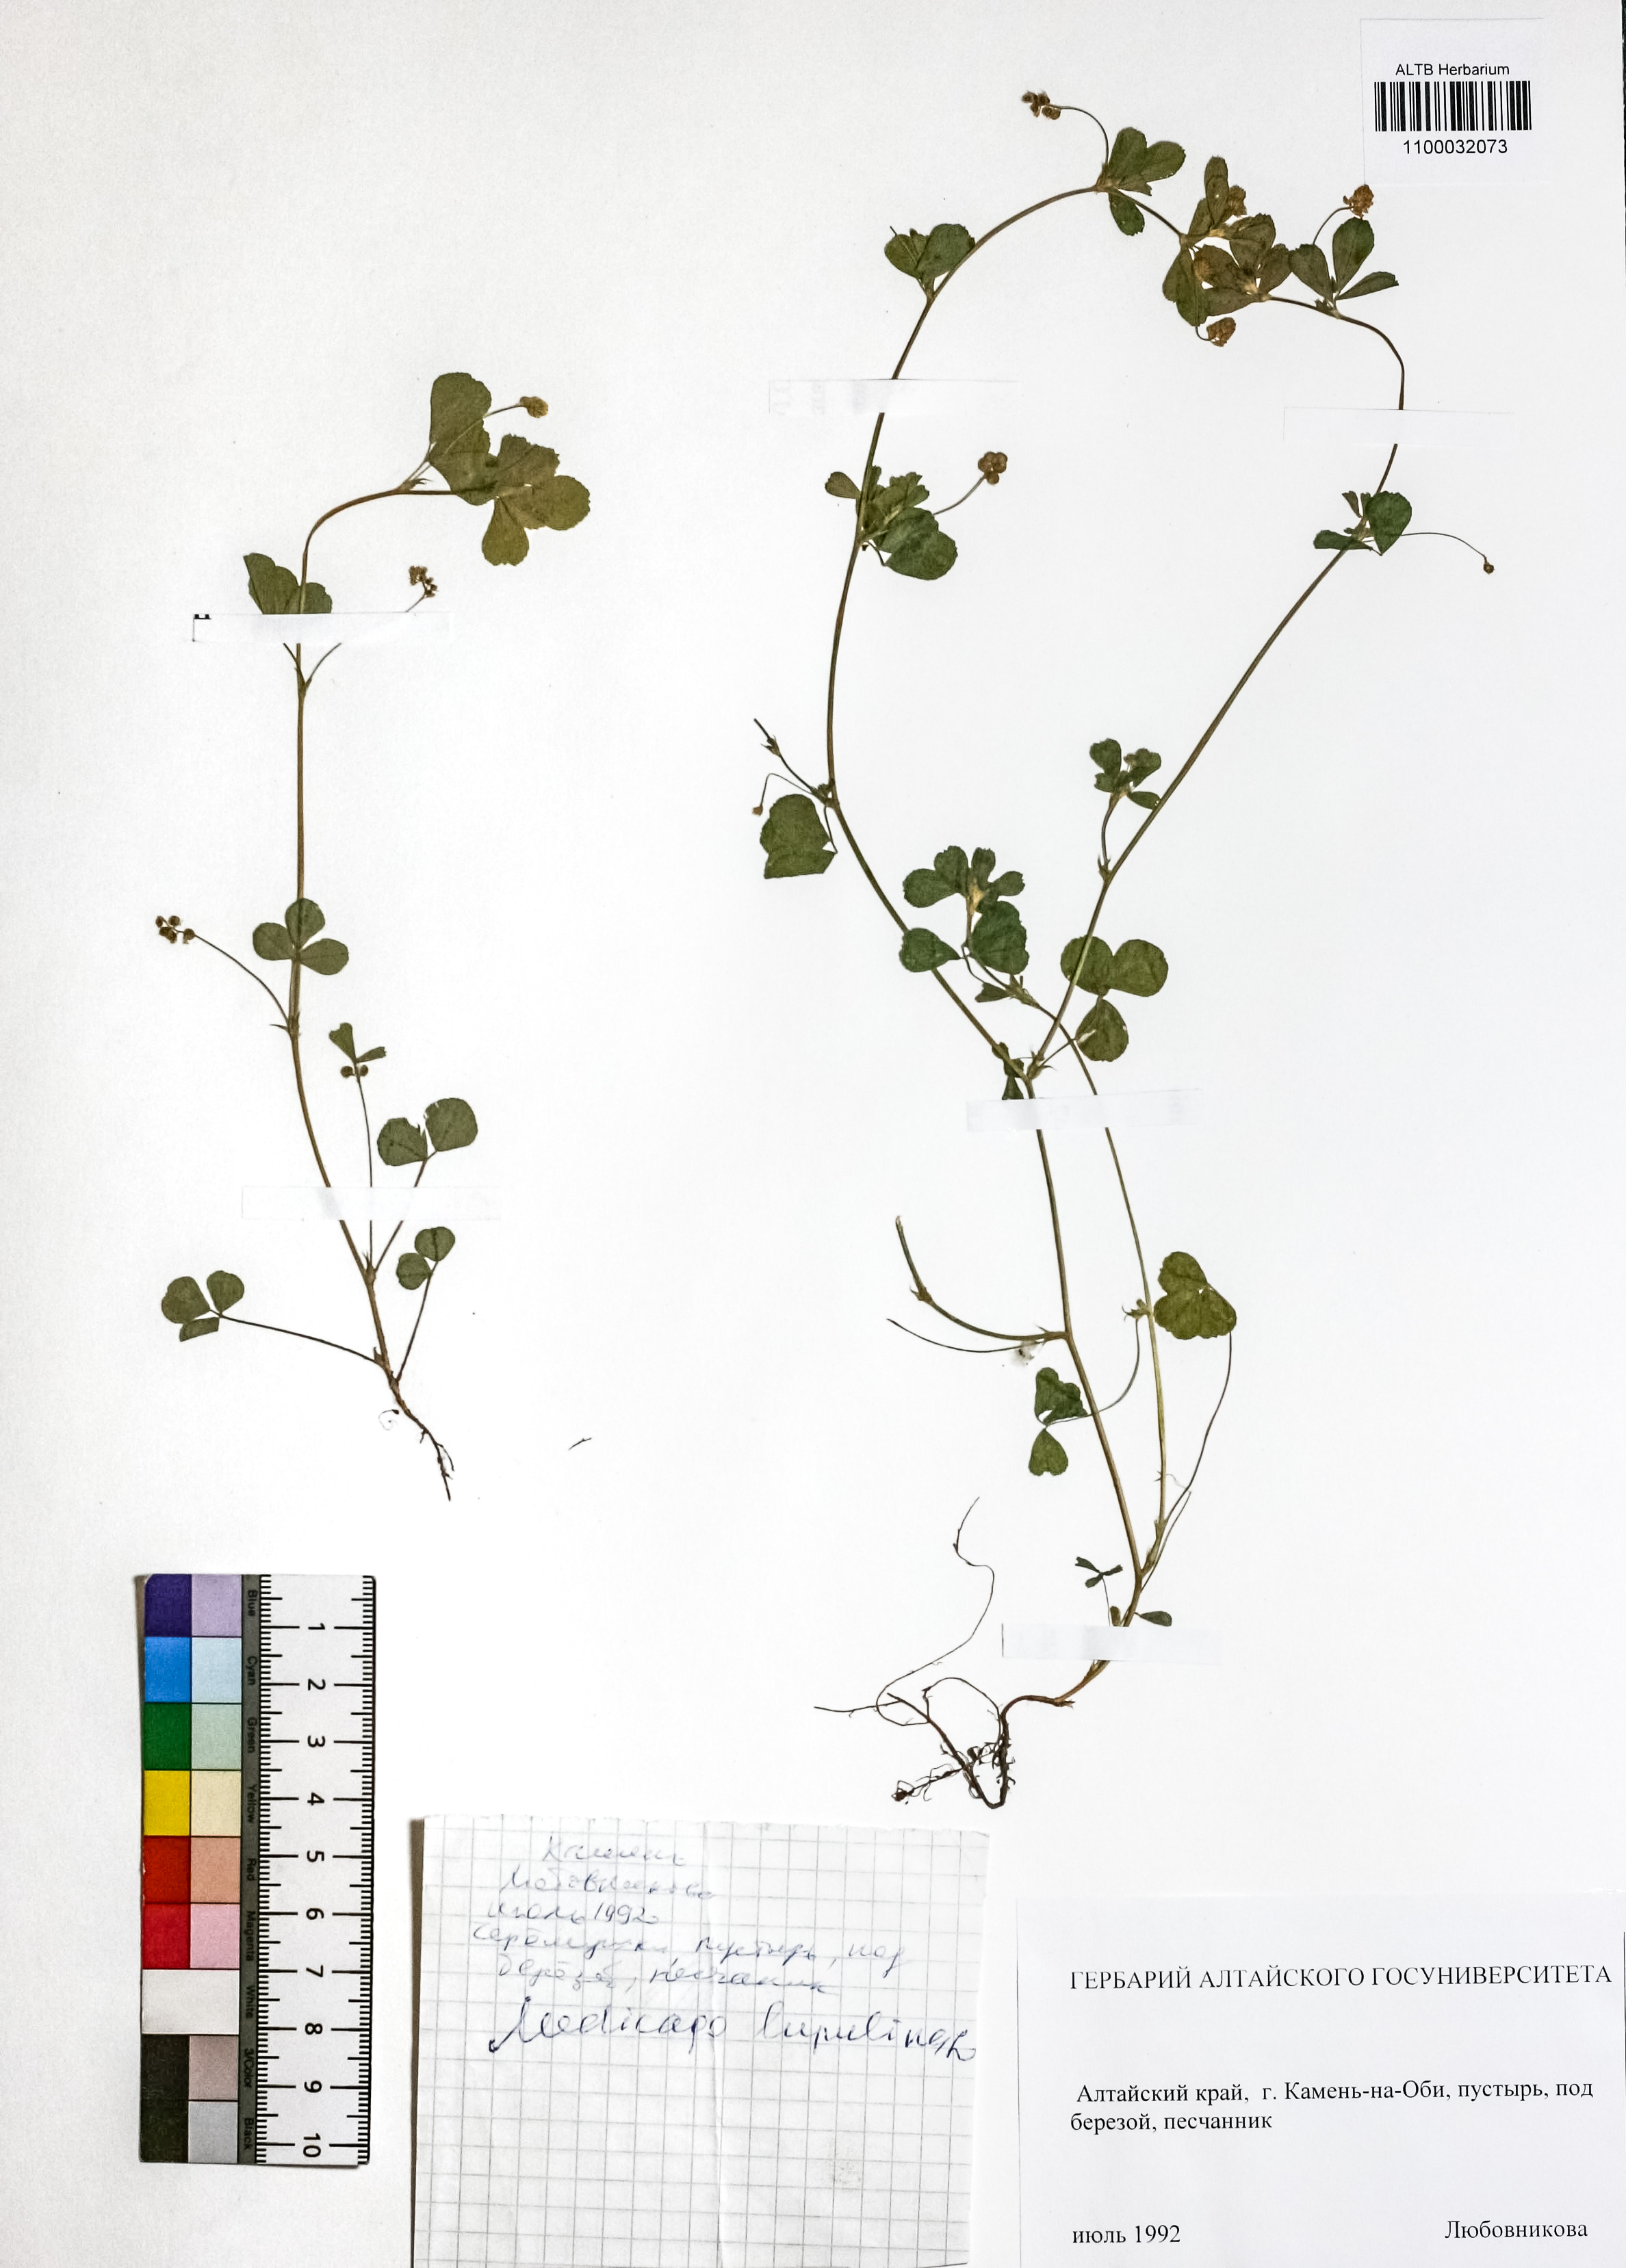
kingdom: Plantae
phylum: Tracheophyta
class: Magnoliopsida
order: Fabales
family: Fabaceae
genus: Medicago
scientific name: Medicago lupulina
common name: Black medick
